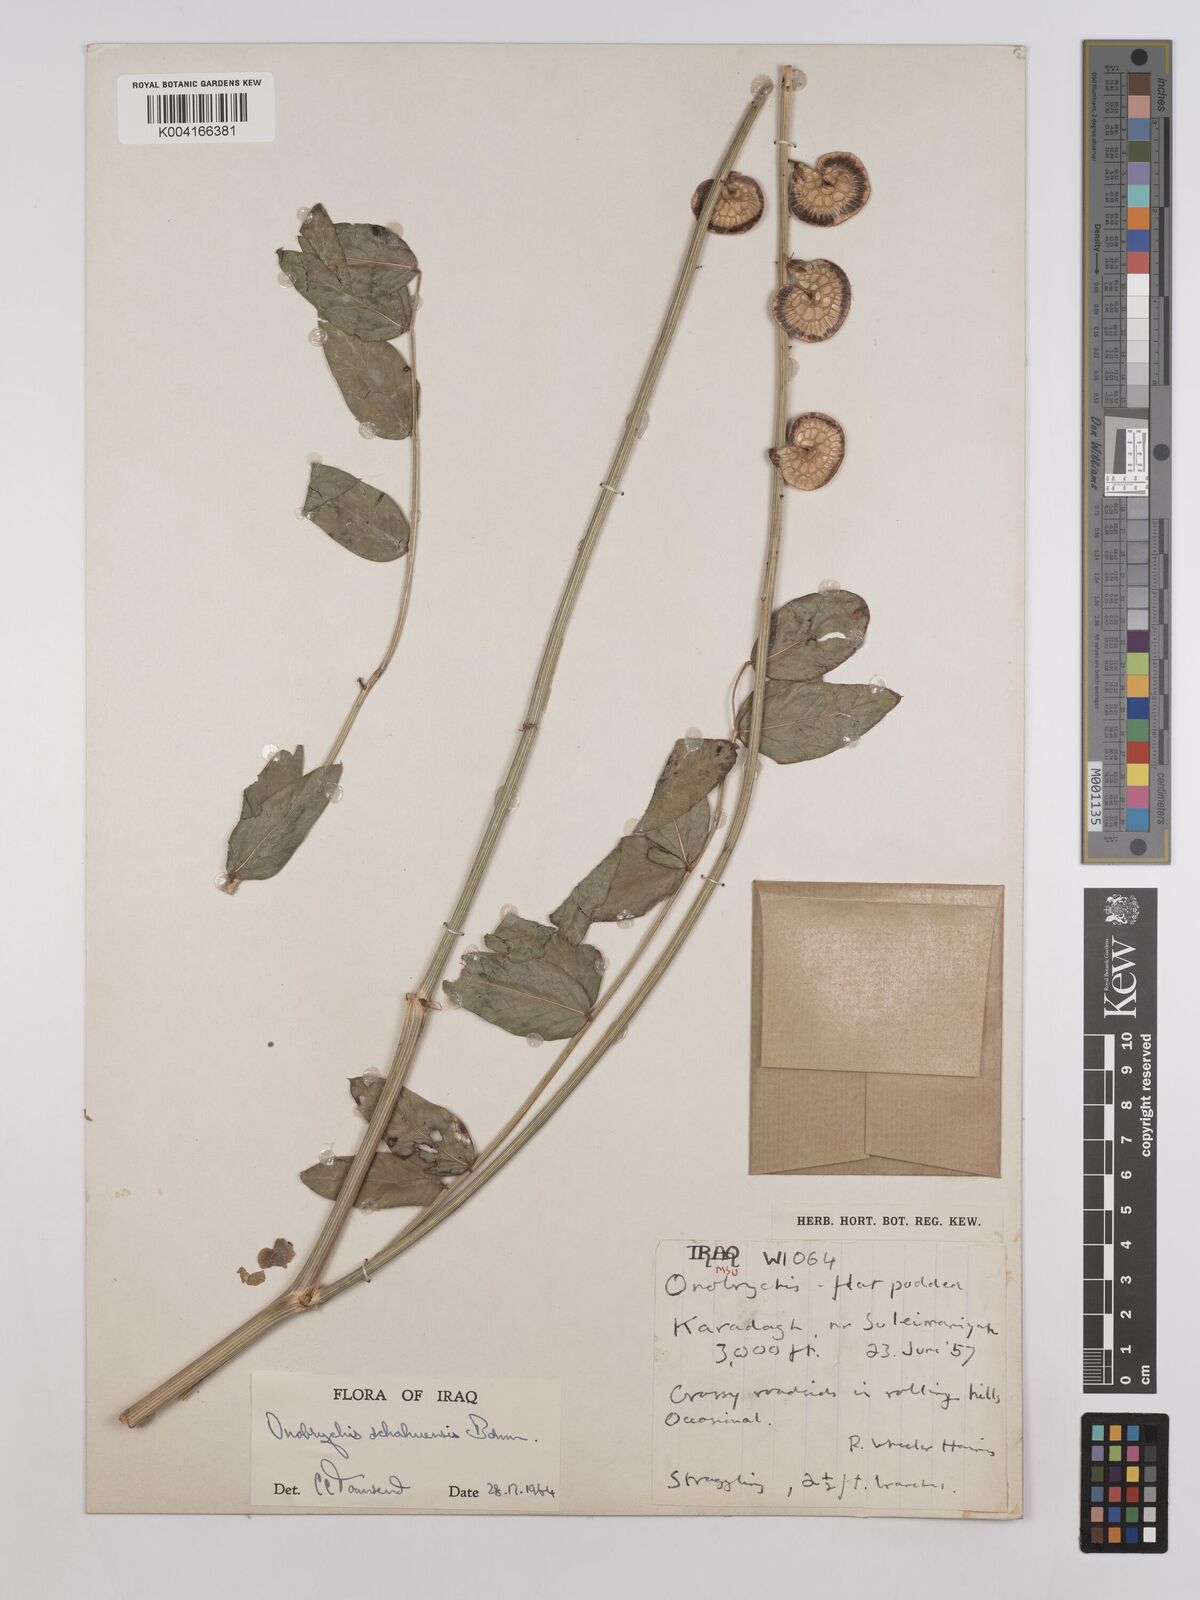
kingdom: Plantae
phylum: Tracheophyta
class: Magnoliopsida
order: Fabales
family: Fabaceae
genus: Onobrychis
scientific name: Onobrychis schahuensis
